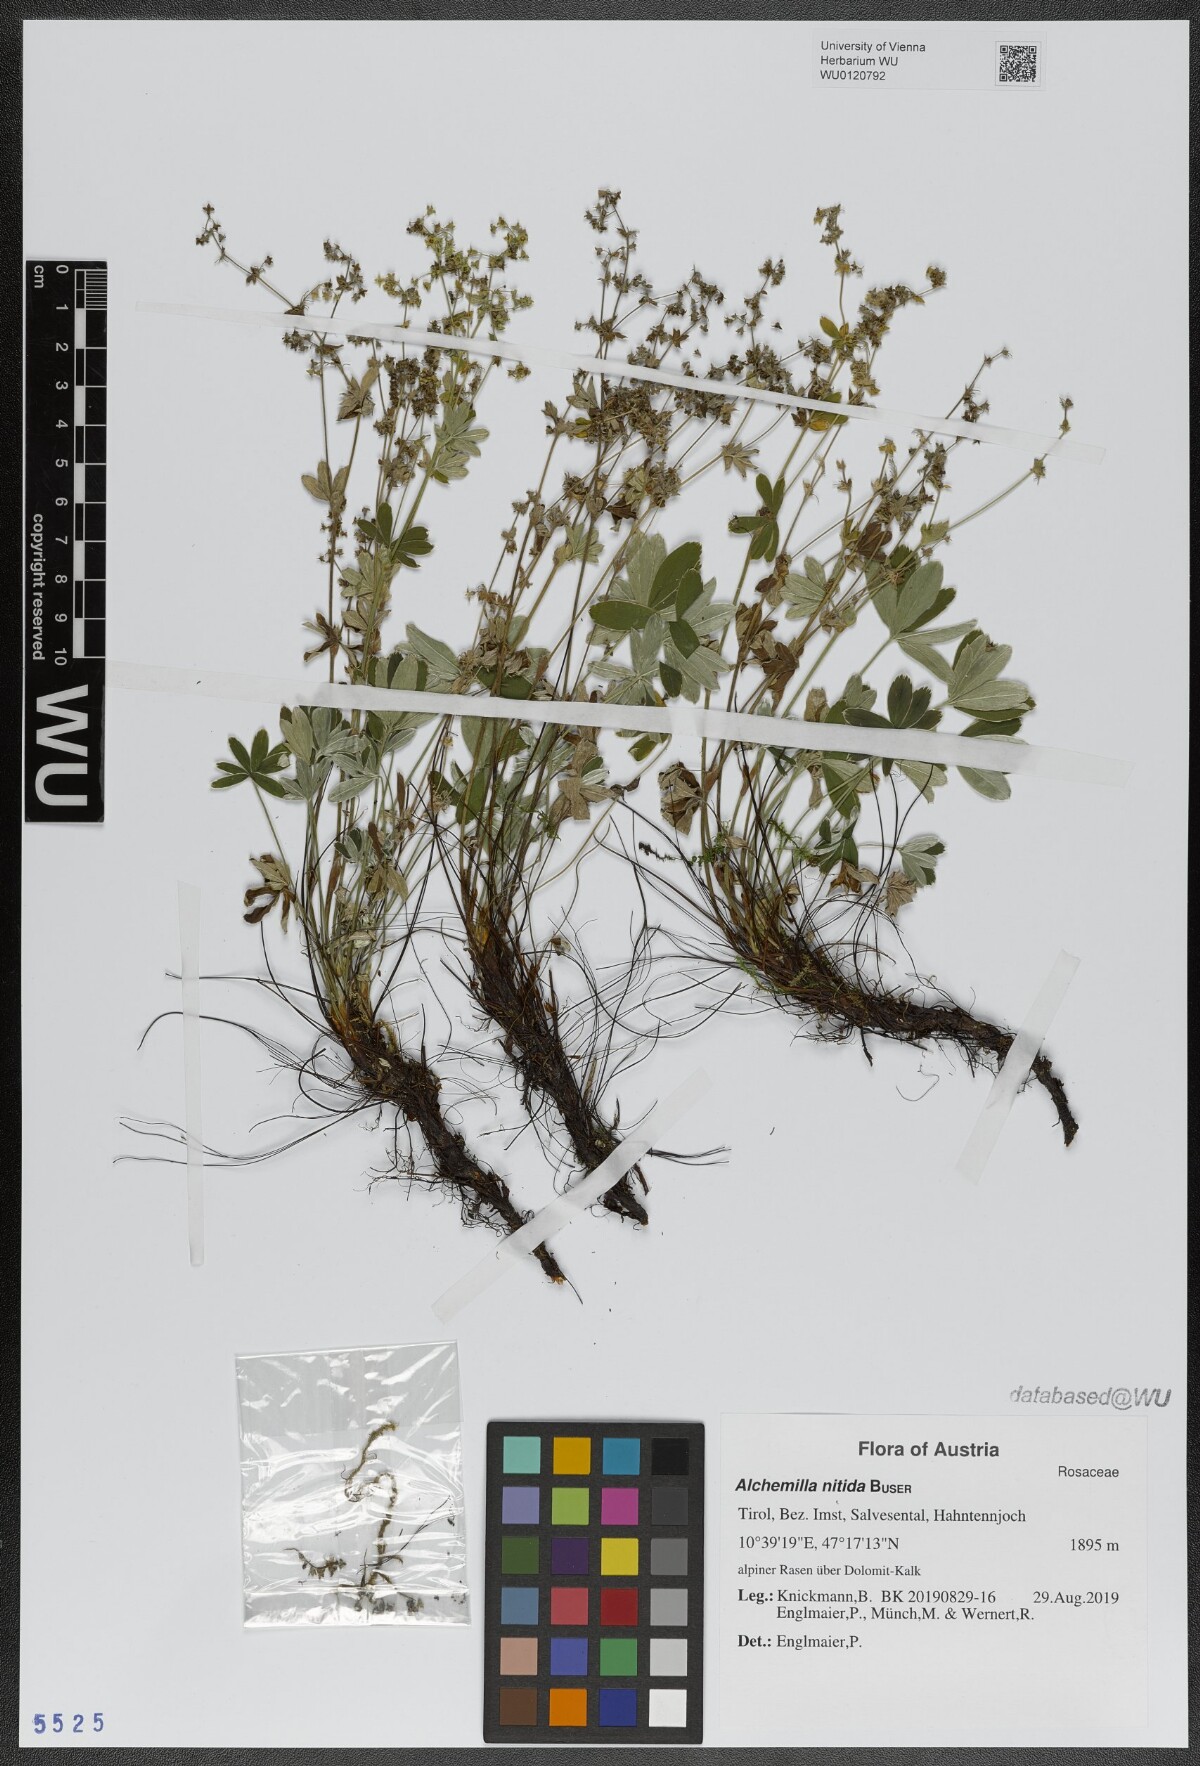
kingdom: Plantae
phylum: Tracheophyta
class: Magnoliopsida
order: Rosales
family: Rosaceae
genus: Alchemilla
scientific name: Alchemilla nitida
